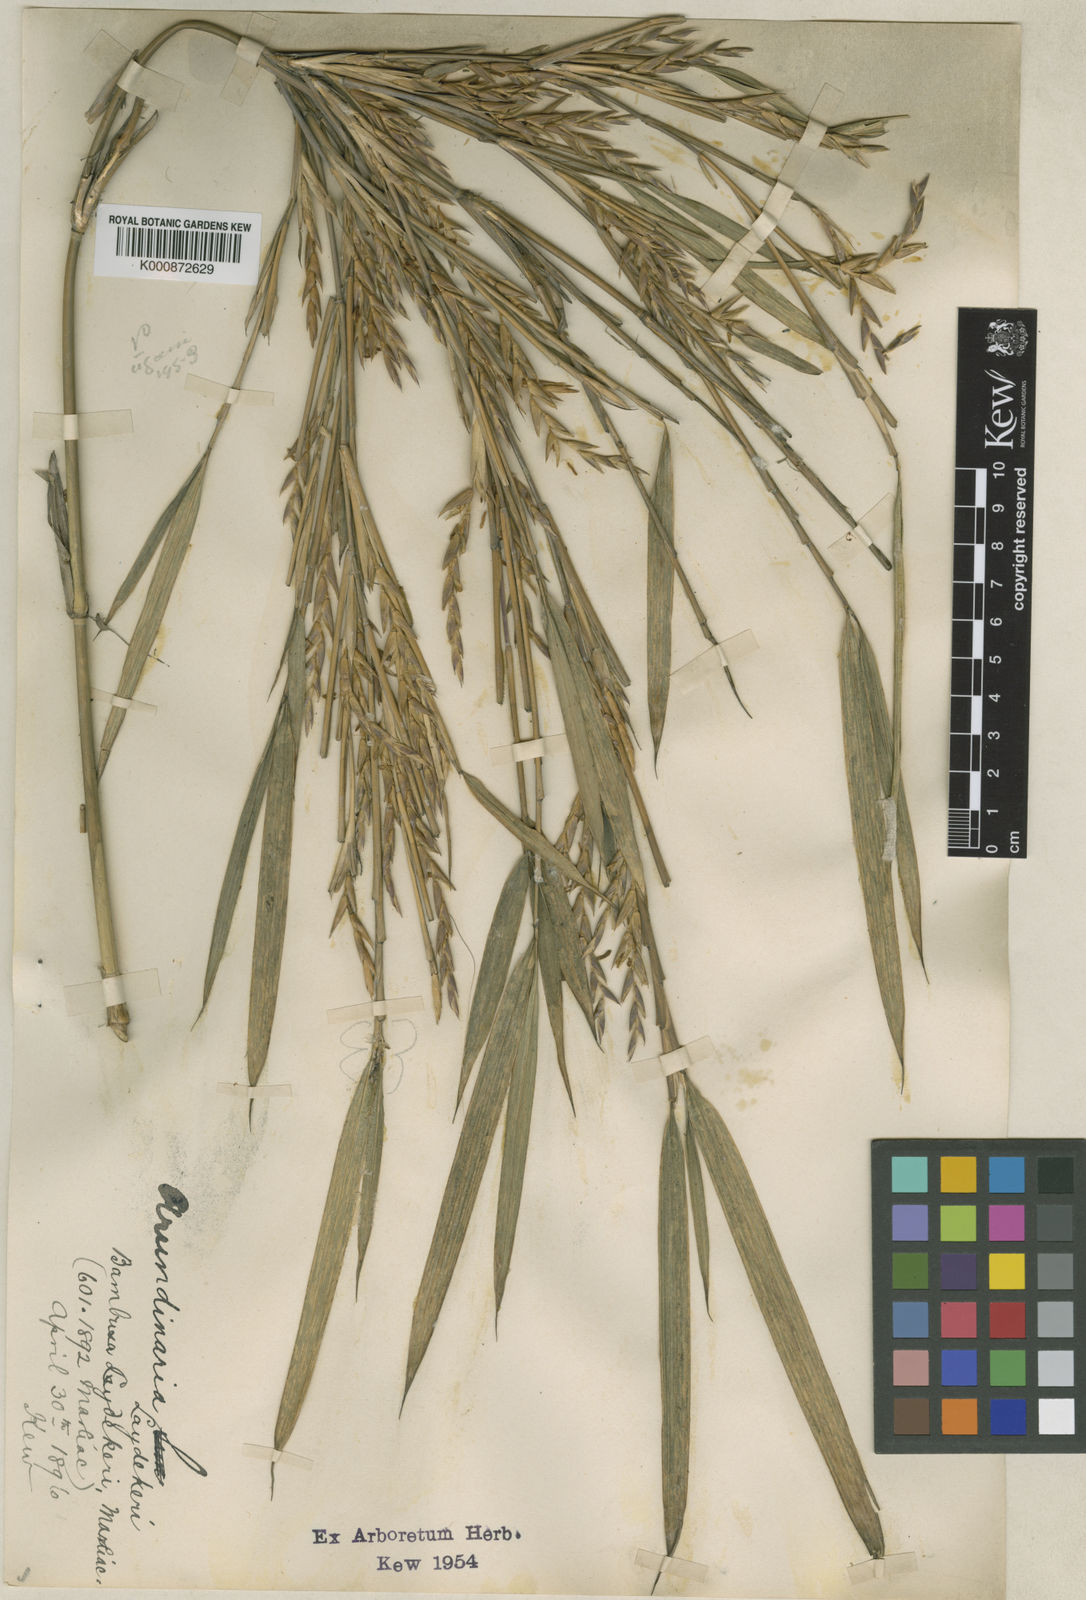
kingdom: Plantae
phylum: Tracheophyta
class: Liliopsida
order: Poales
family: Poaceae
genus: Pleioblastus
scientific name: Pleioblastus argenteostriatus
